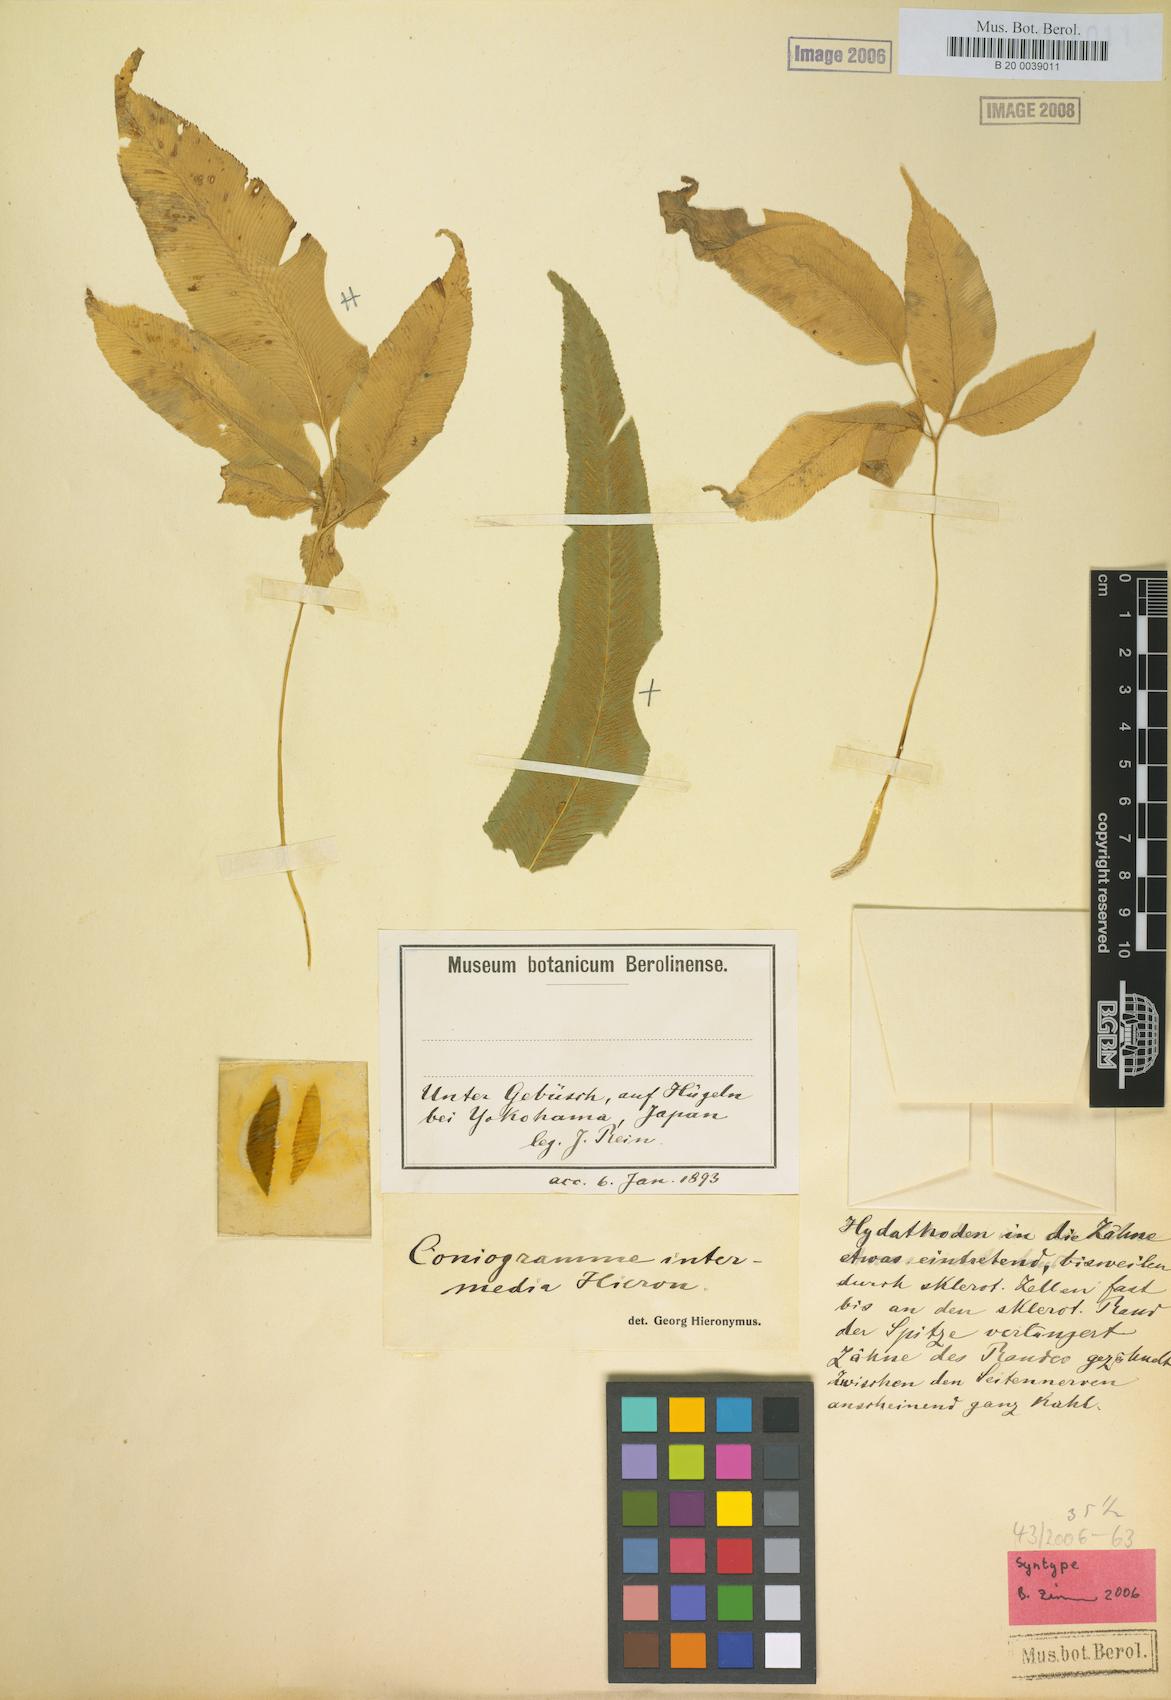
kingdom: Plantae
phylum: Tracheophyta
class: Polypodiopsida
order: Polypodiales
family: Pteridaceae
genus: Coniogramme
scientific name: Coniogramme intermedia
